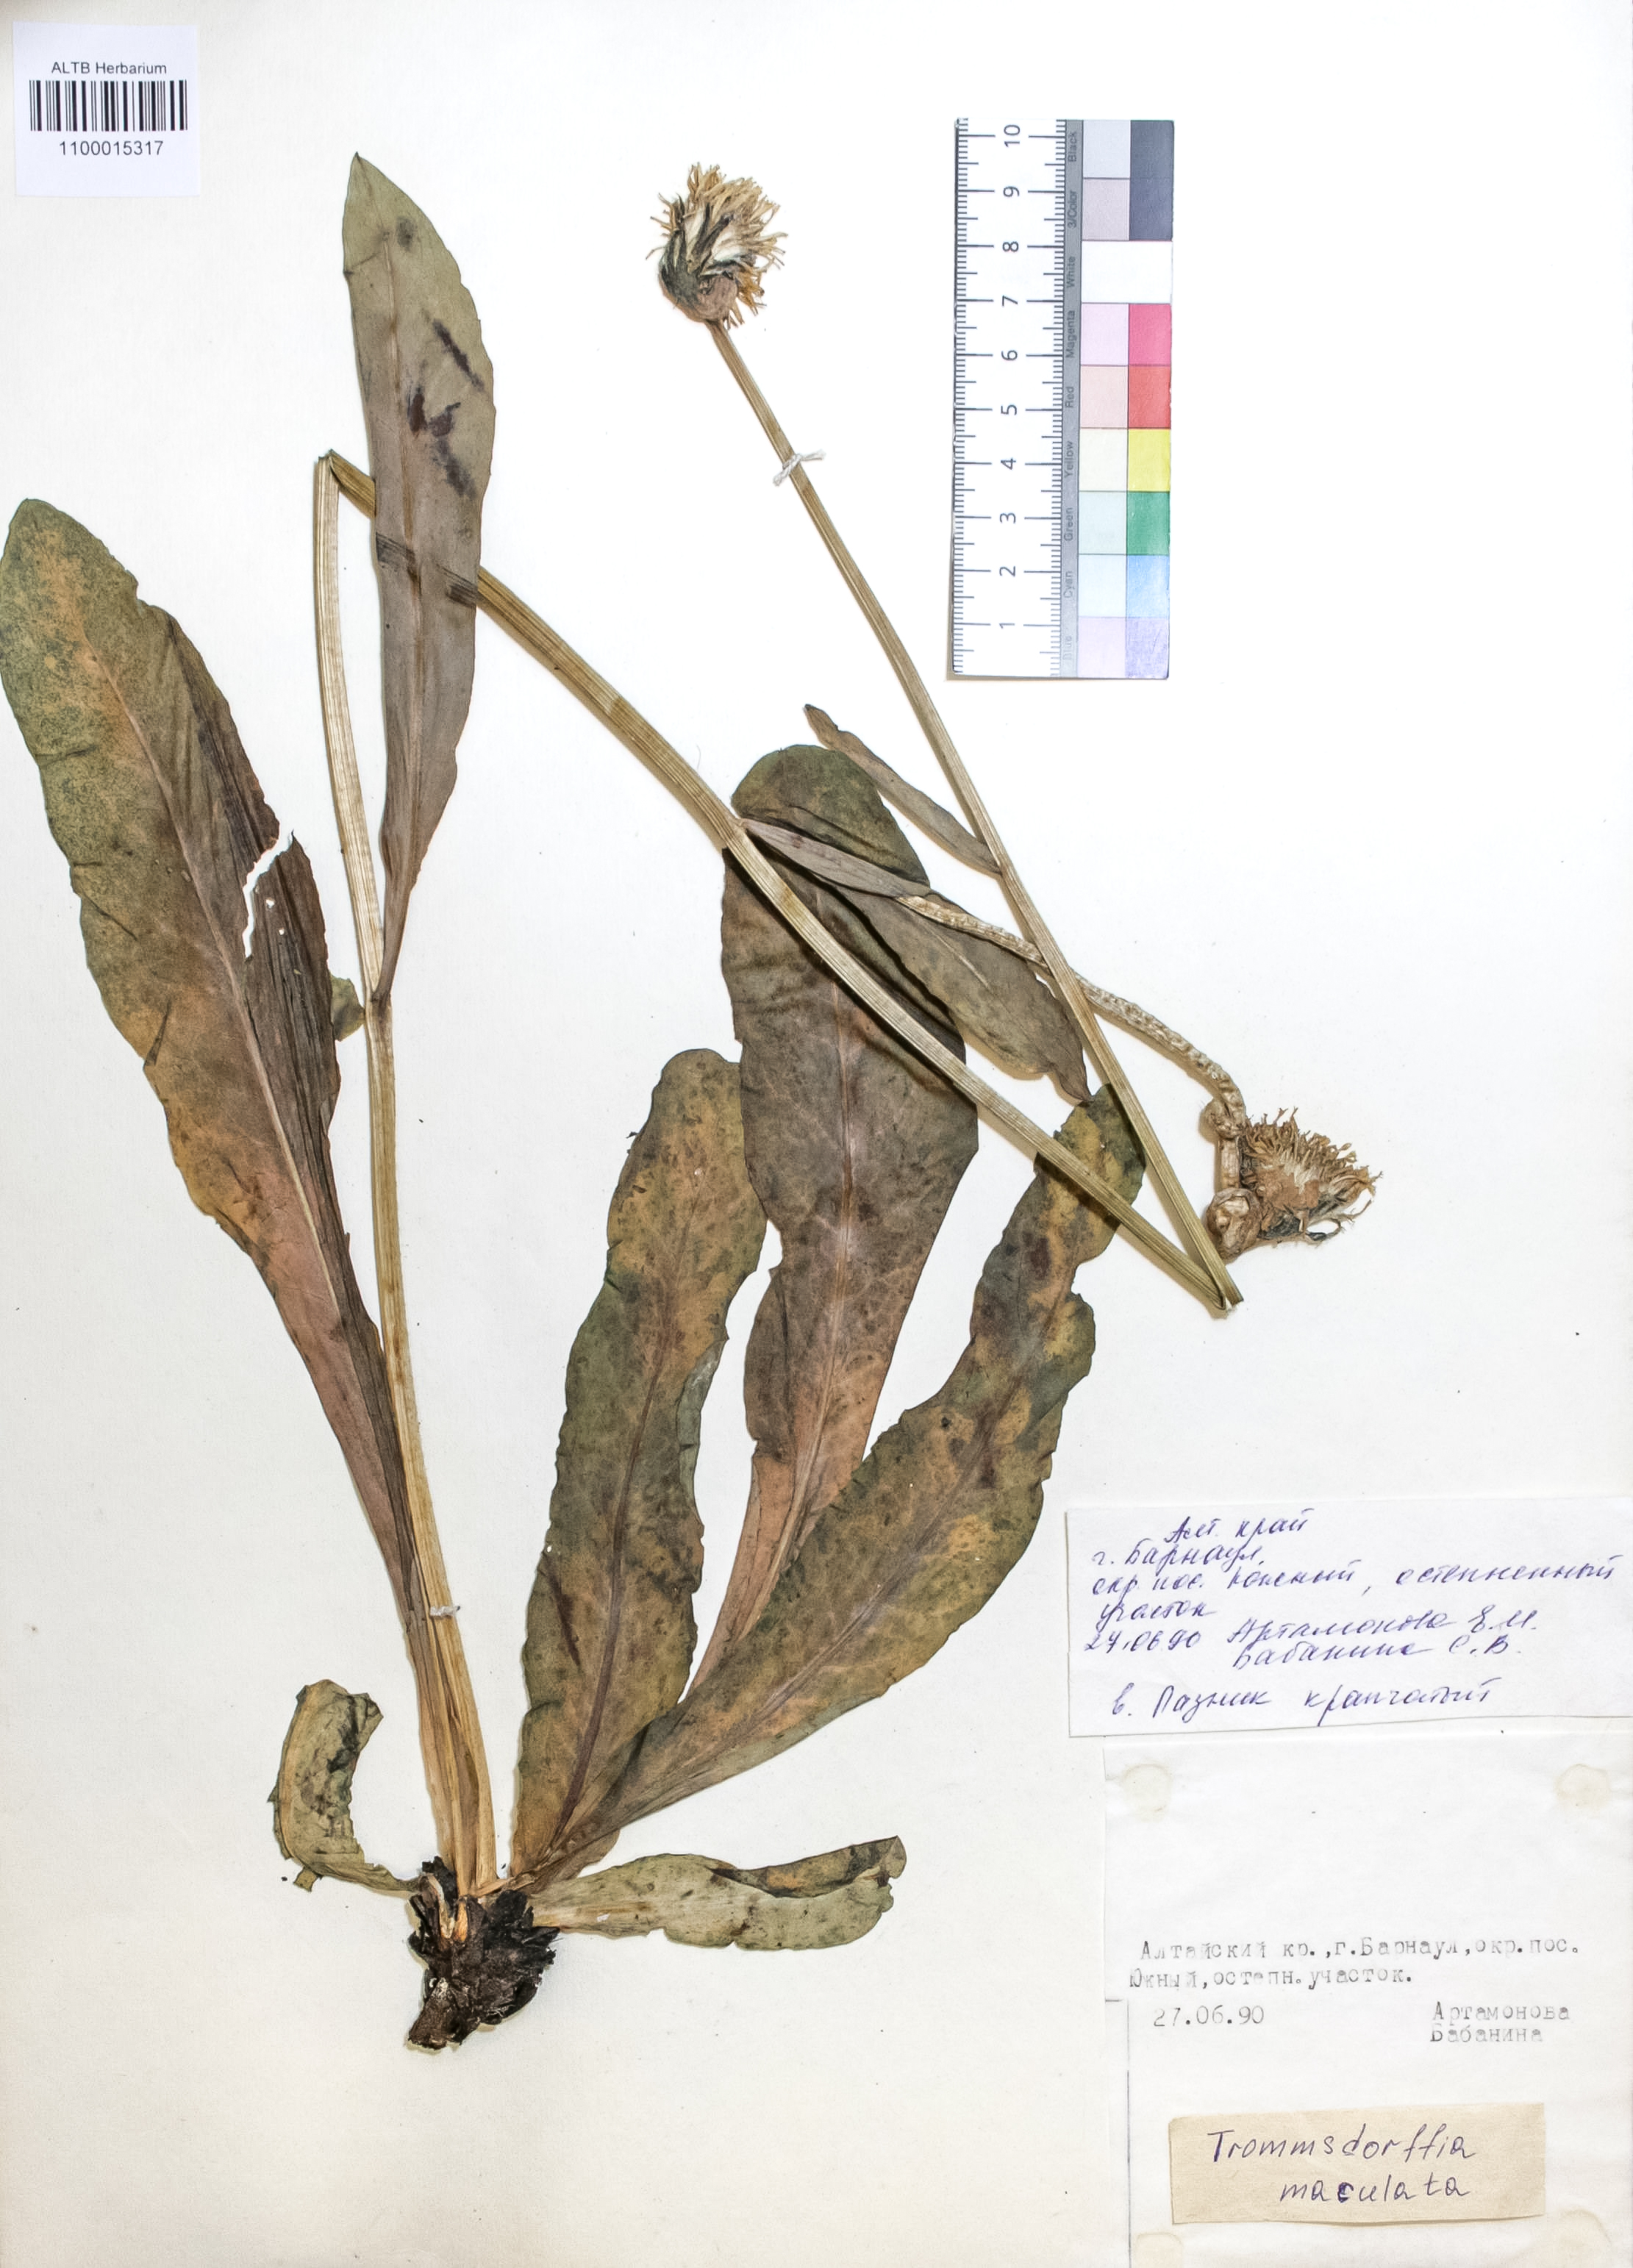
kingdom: Plantae
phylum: Tracheophyta
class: Magnoliopsida
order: Asterales
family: Asteraceae
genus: Trommsdorffia
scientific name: Trommsdorffia maculata
